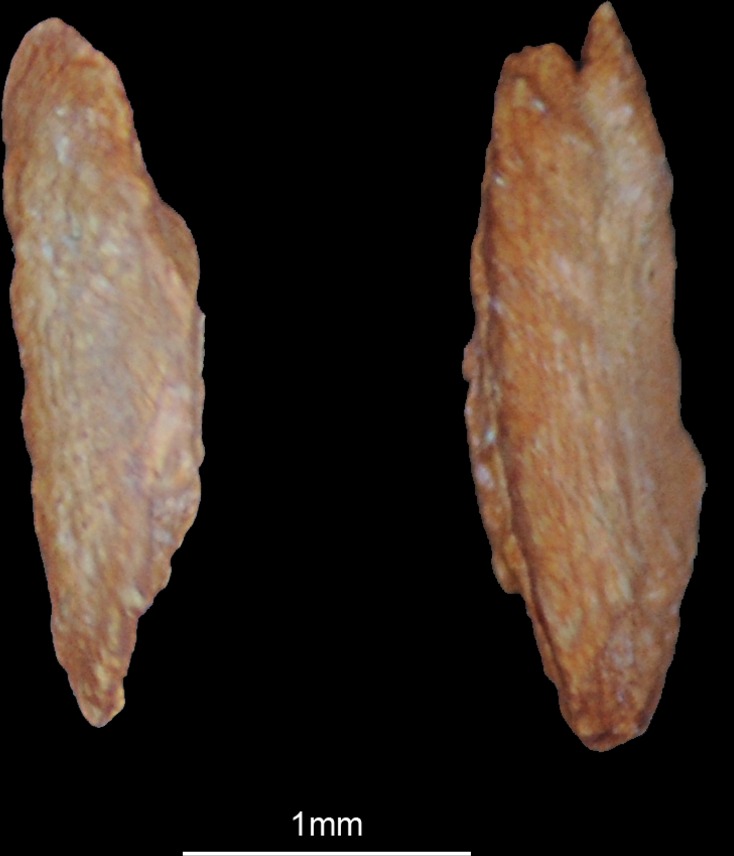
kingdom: Animalia
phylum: Chordata
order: Perciformes
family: Labridae
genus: Symphodus
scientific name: Symphodus tinca
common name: Peacock wrasse
